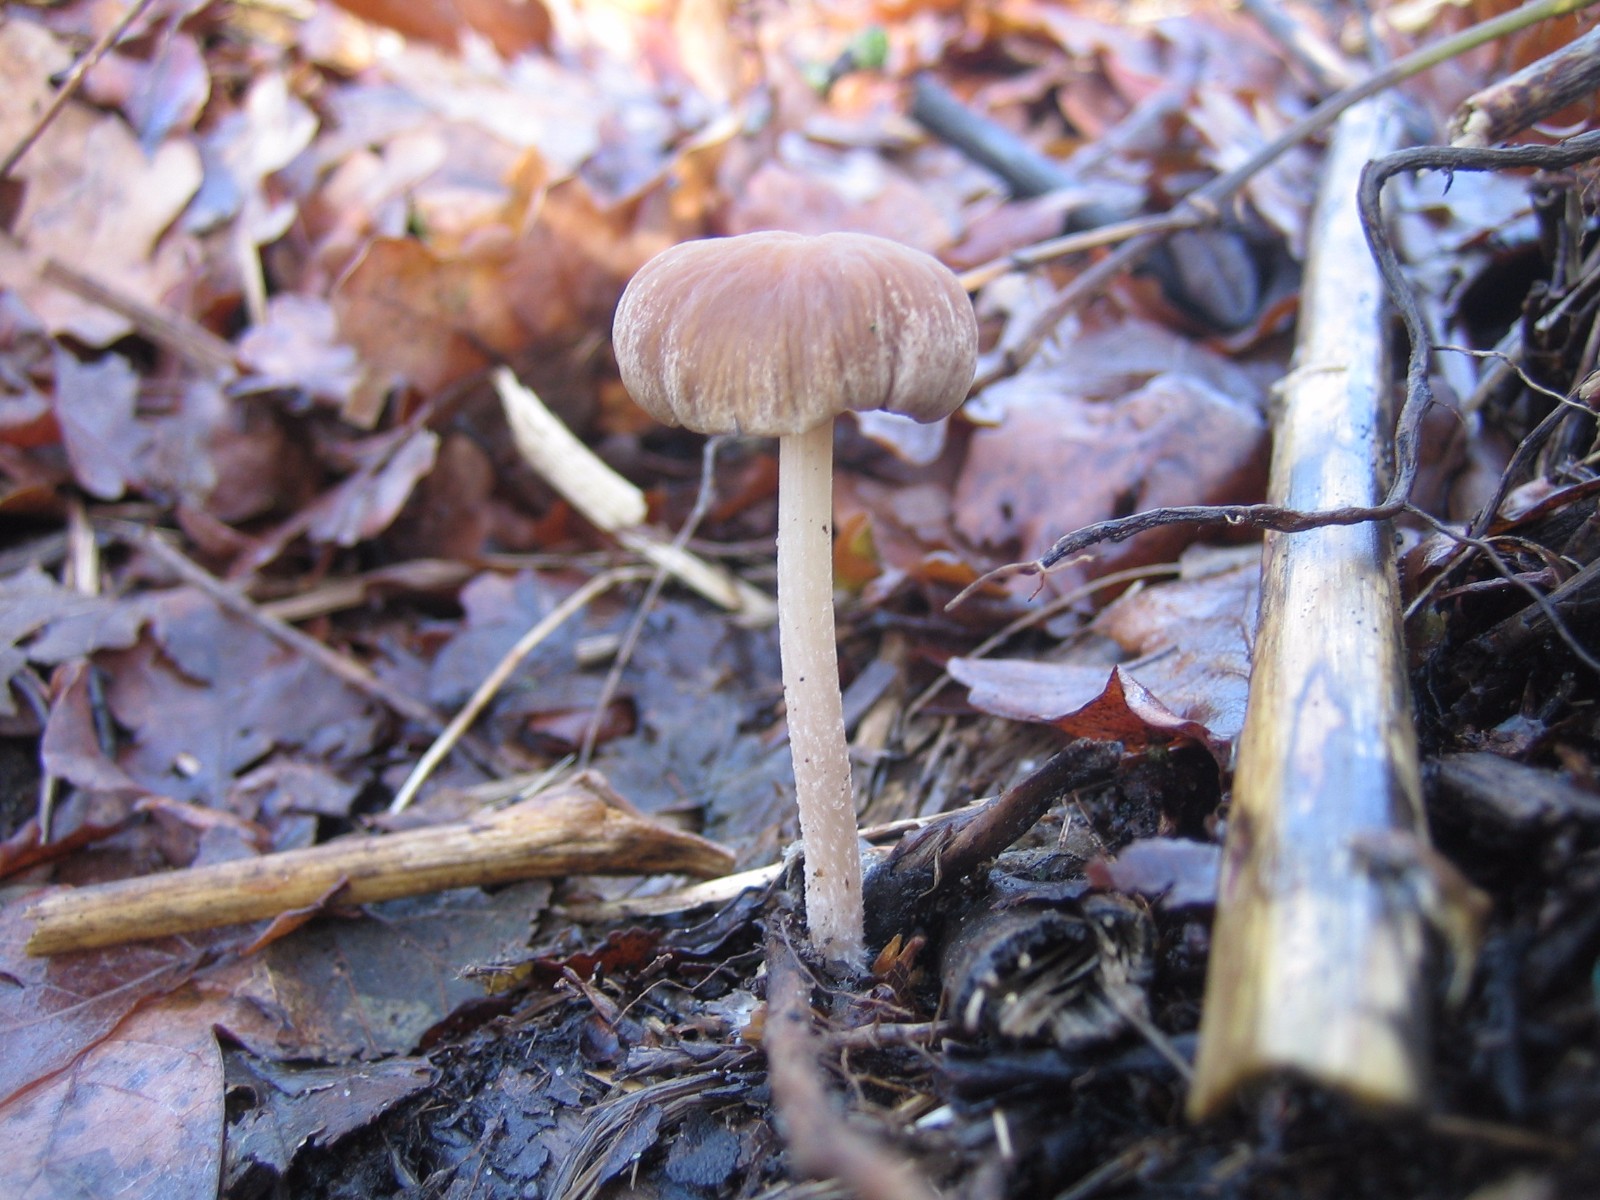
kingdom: Fungi
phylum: Basidiomycota
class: Agaricomycetes
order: Agaricales
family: Psathyrellaceae
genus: Psathyrella
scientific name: Psathyrella
